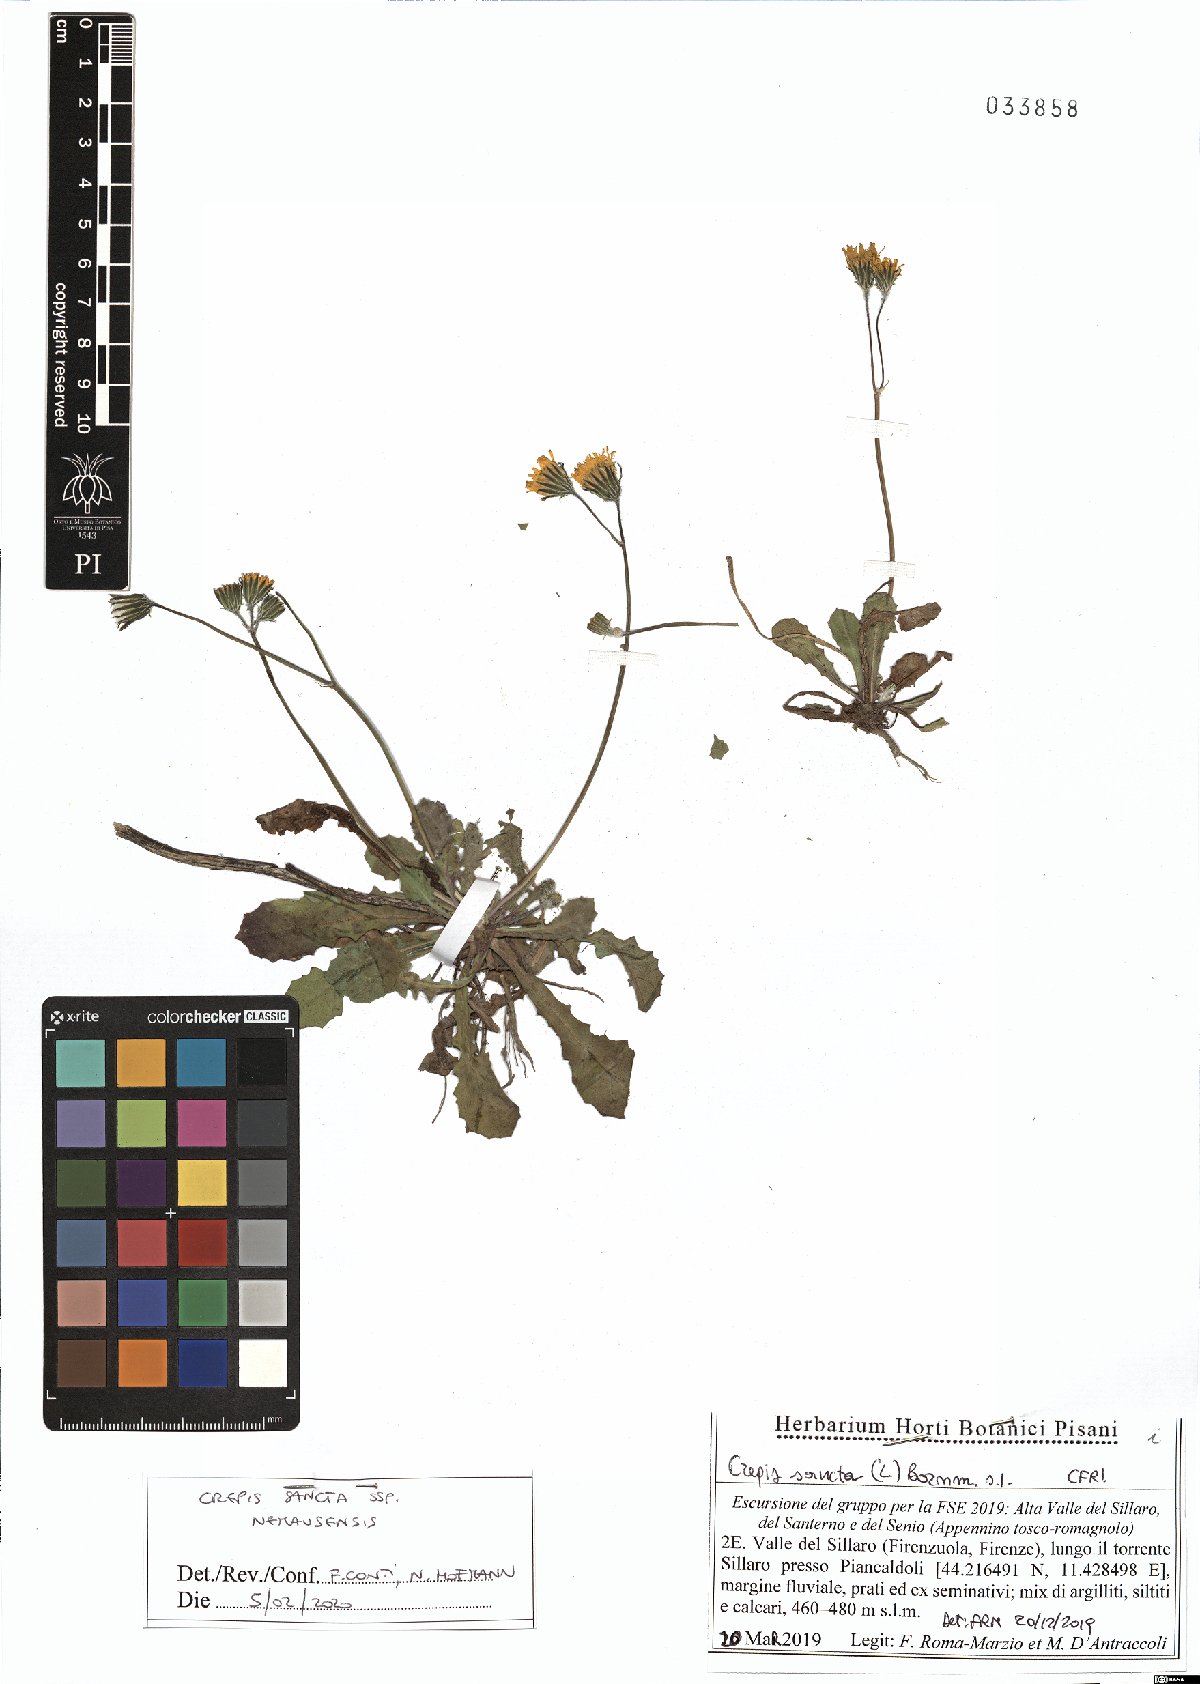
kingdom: Plantae
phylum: Tracheophyta
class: Magnoliopsida
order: Asterales
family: Asteraceae
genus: Crepis
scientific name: Crepis sancta
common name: Hawk's-beard
